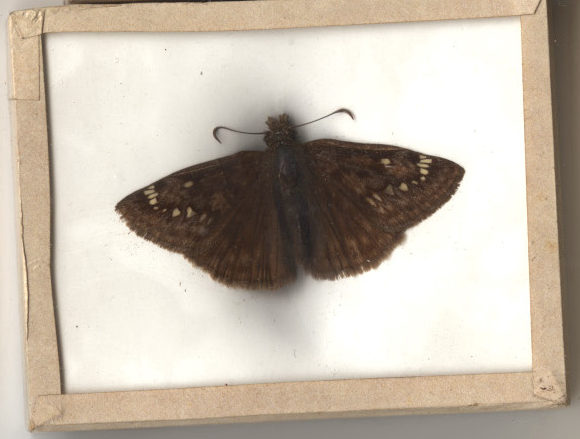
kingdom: Animalia
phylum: Arthropoda
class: Insecta
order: Lepidoptera
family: Hesperiidae
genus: Erynnis
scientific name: Erynnis horatius
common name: Horace's Duskywing
